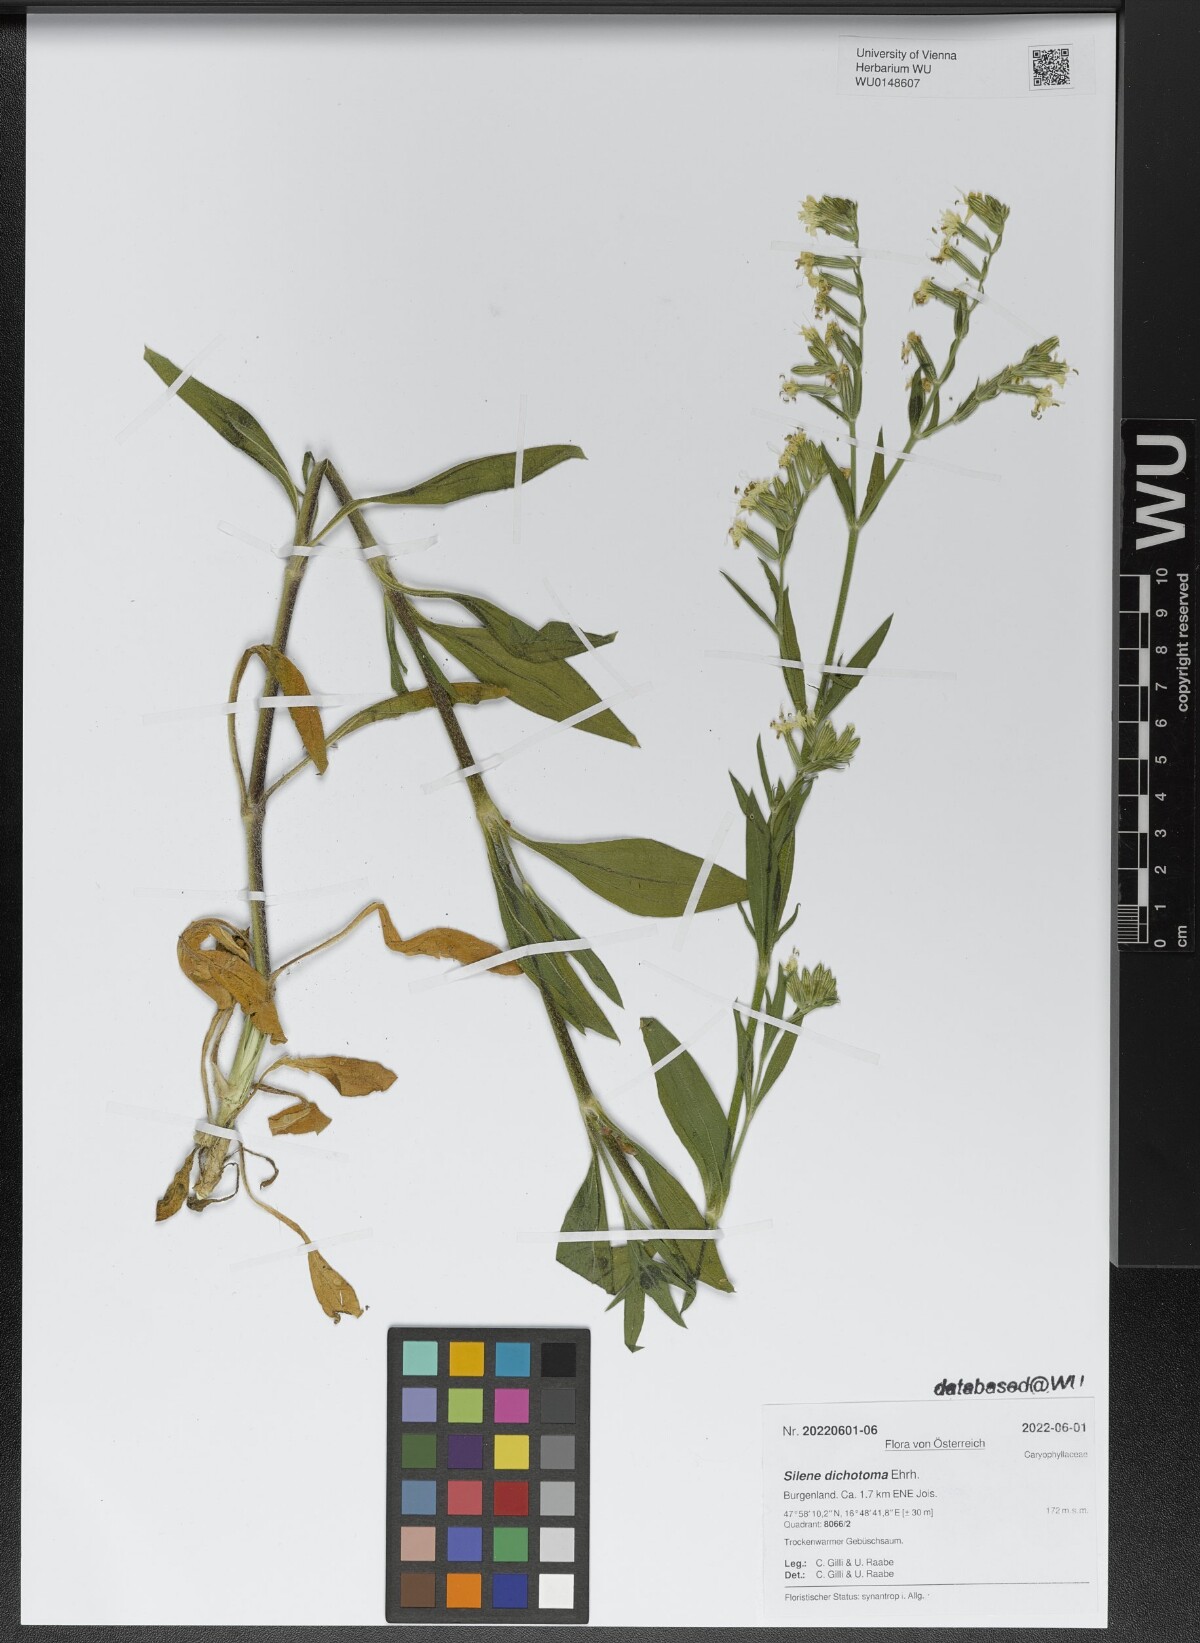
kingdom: Plantae
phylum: Tracheophyta
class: Magnoliopsida
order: Caryophyllales
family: Caryophyllaceae
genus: Silene
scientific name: Silene dichotoma
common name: Forked catchfly
